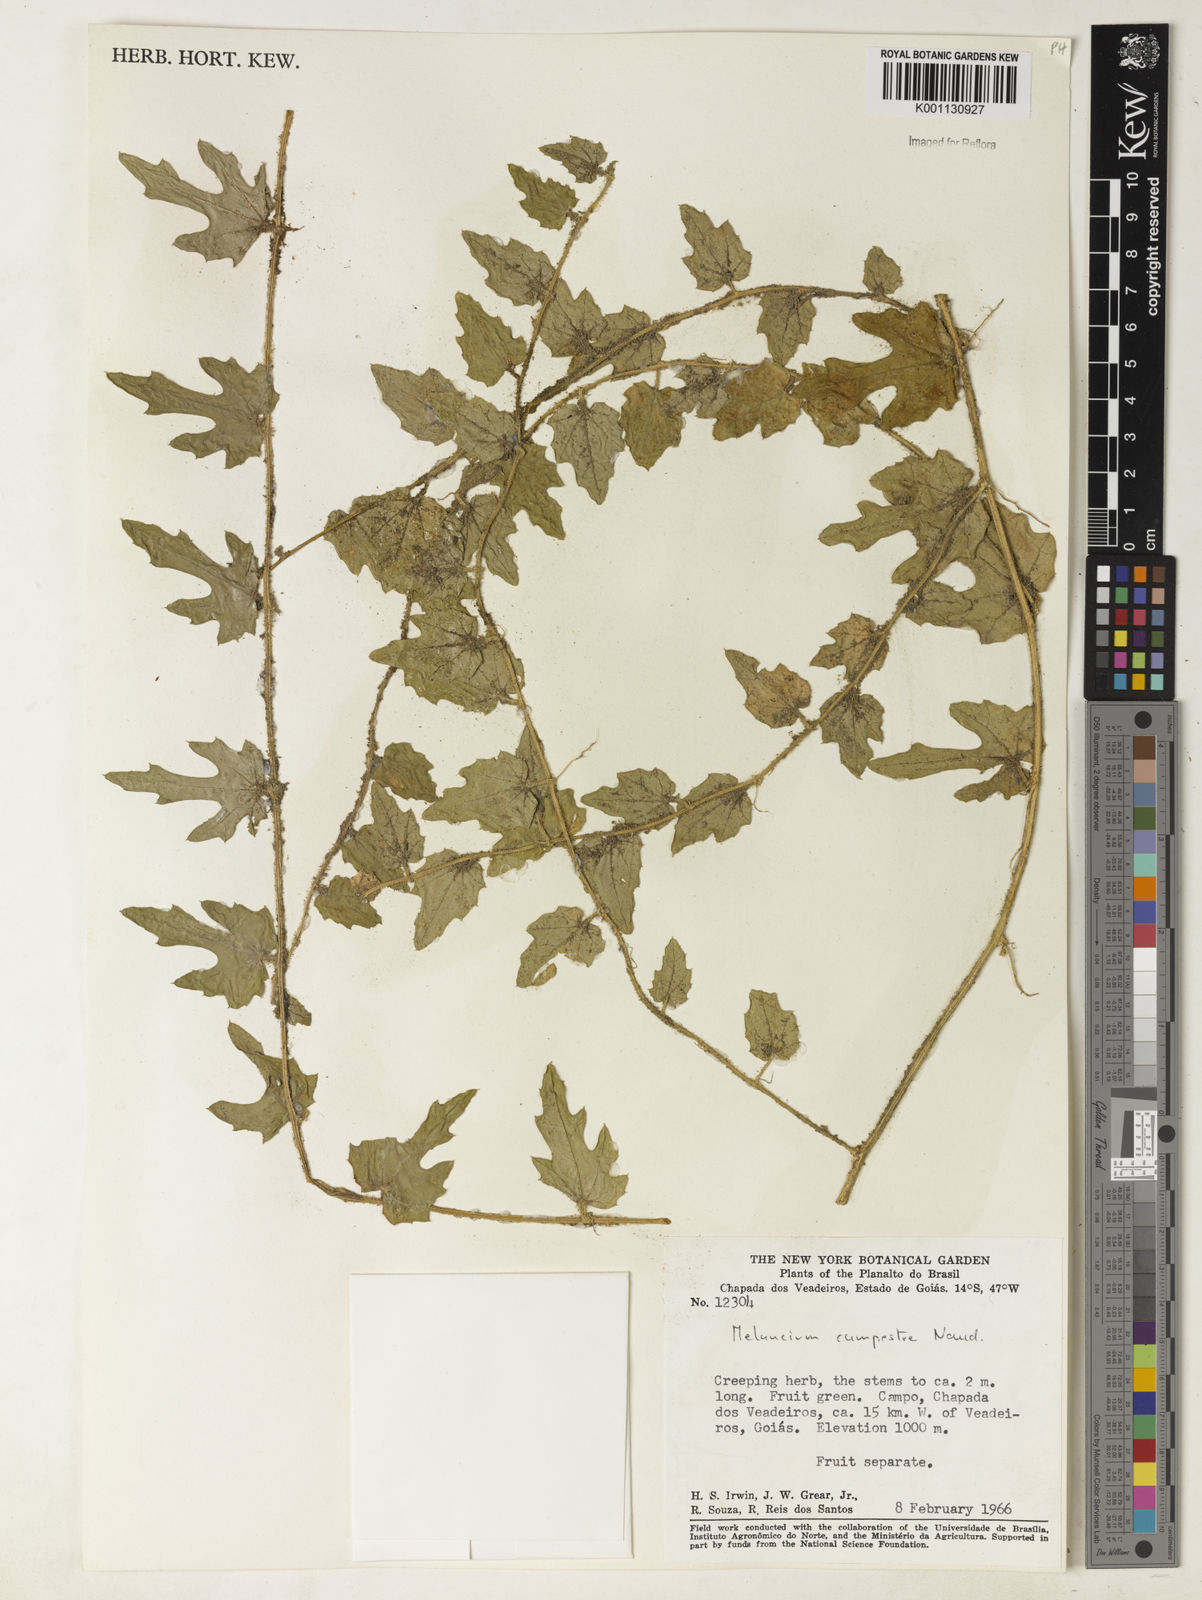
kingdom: Plantae
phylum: Tracheophyta
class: Magnoliopsida
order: Cucurbitales
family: Cucurbitaceae
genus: Melothria
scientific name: Melothria campestris
